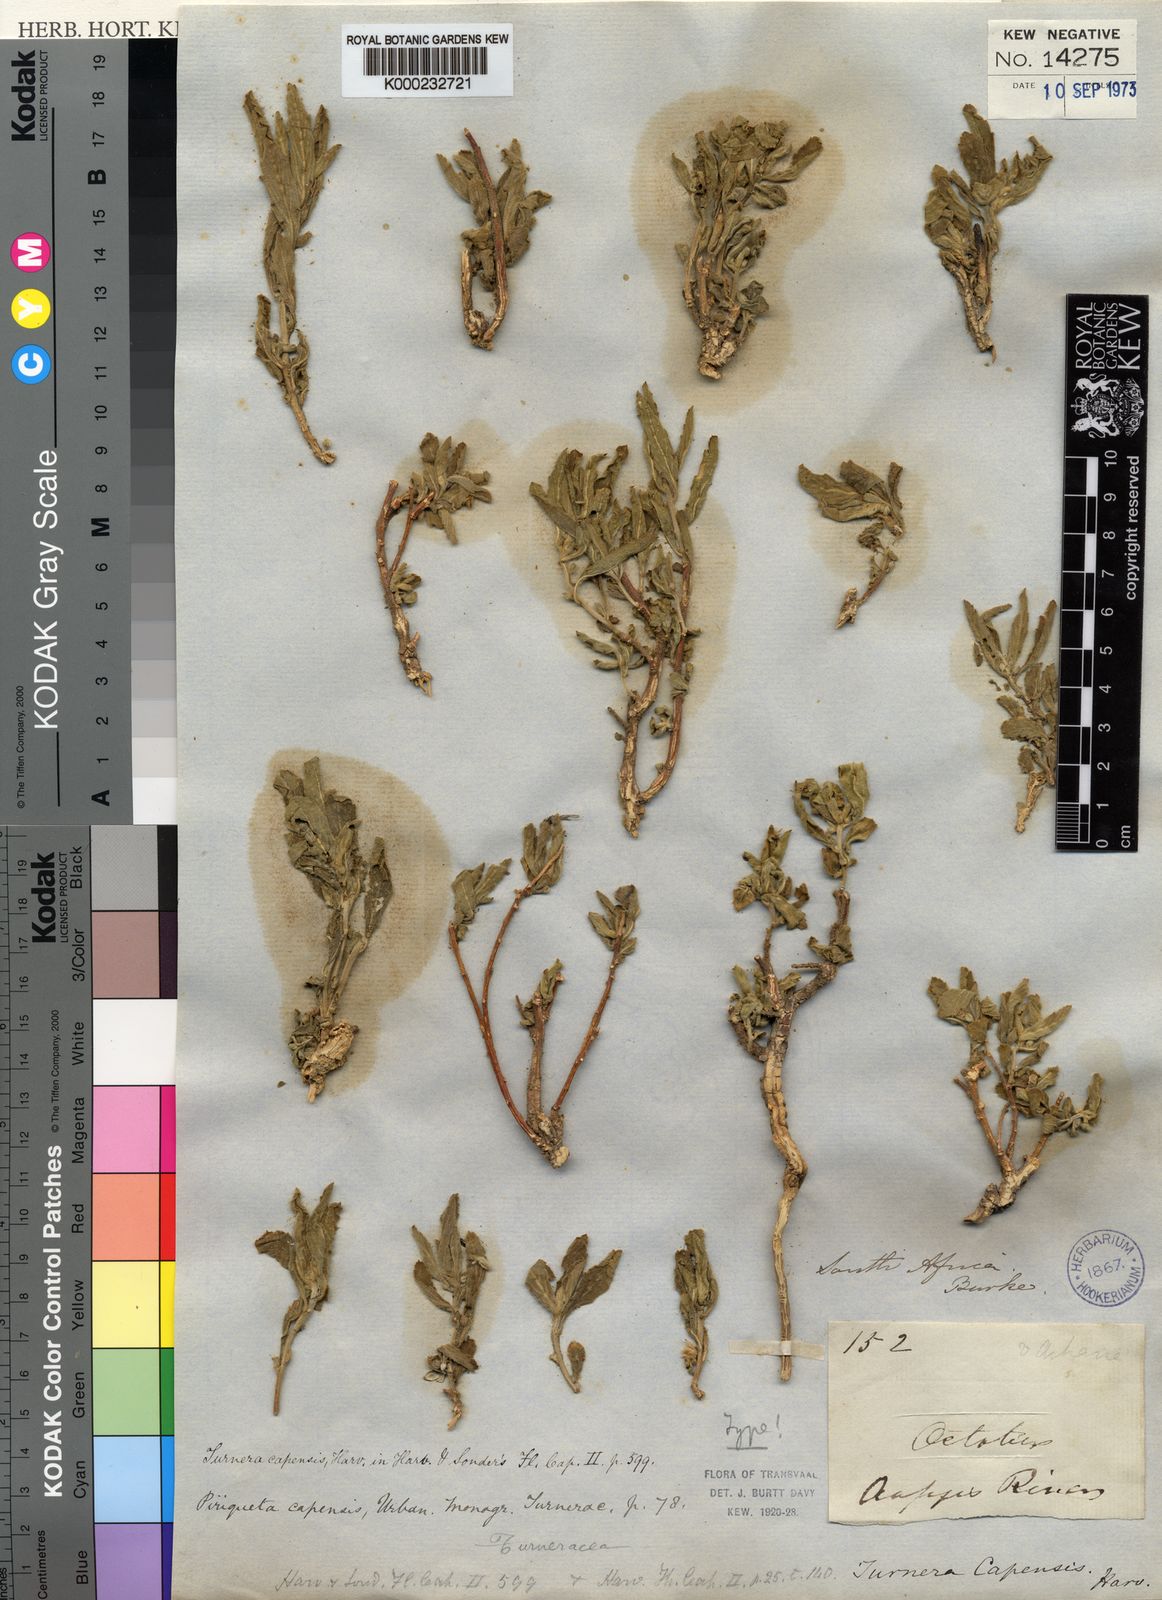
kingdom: Plantae
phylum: Tracheophyta
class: Magnoliopsida
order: Malpighiales
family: Turneraceae
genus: Afroqueta
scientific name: Afroqueta capensis
